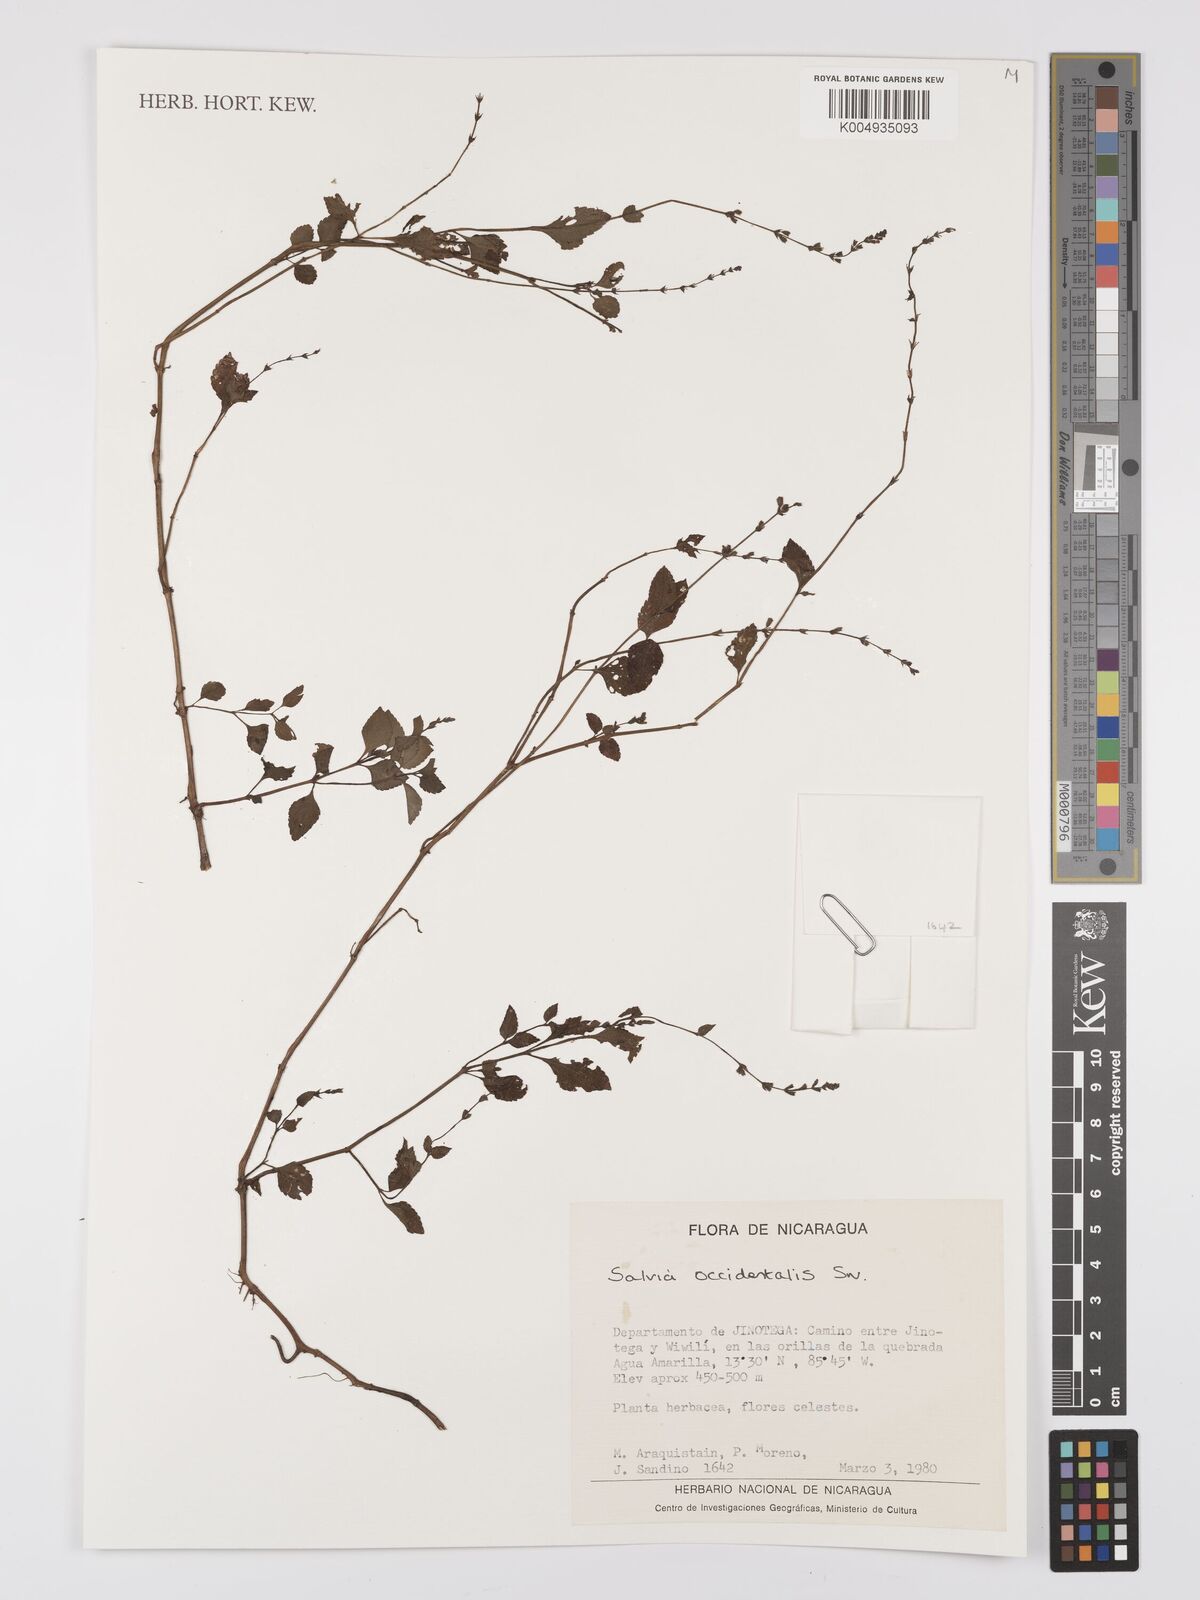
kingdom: Plantae
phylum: Tracheophyta
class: Magnoliopsida
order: Lamiales
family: Lamiaceae
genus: Salvia
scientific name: Salvia occidentalis
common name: West indian sage
